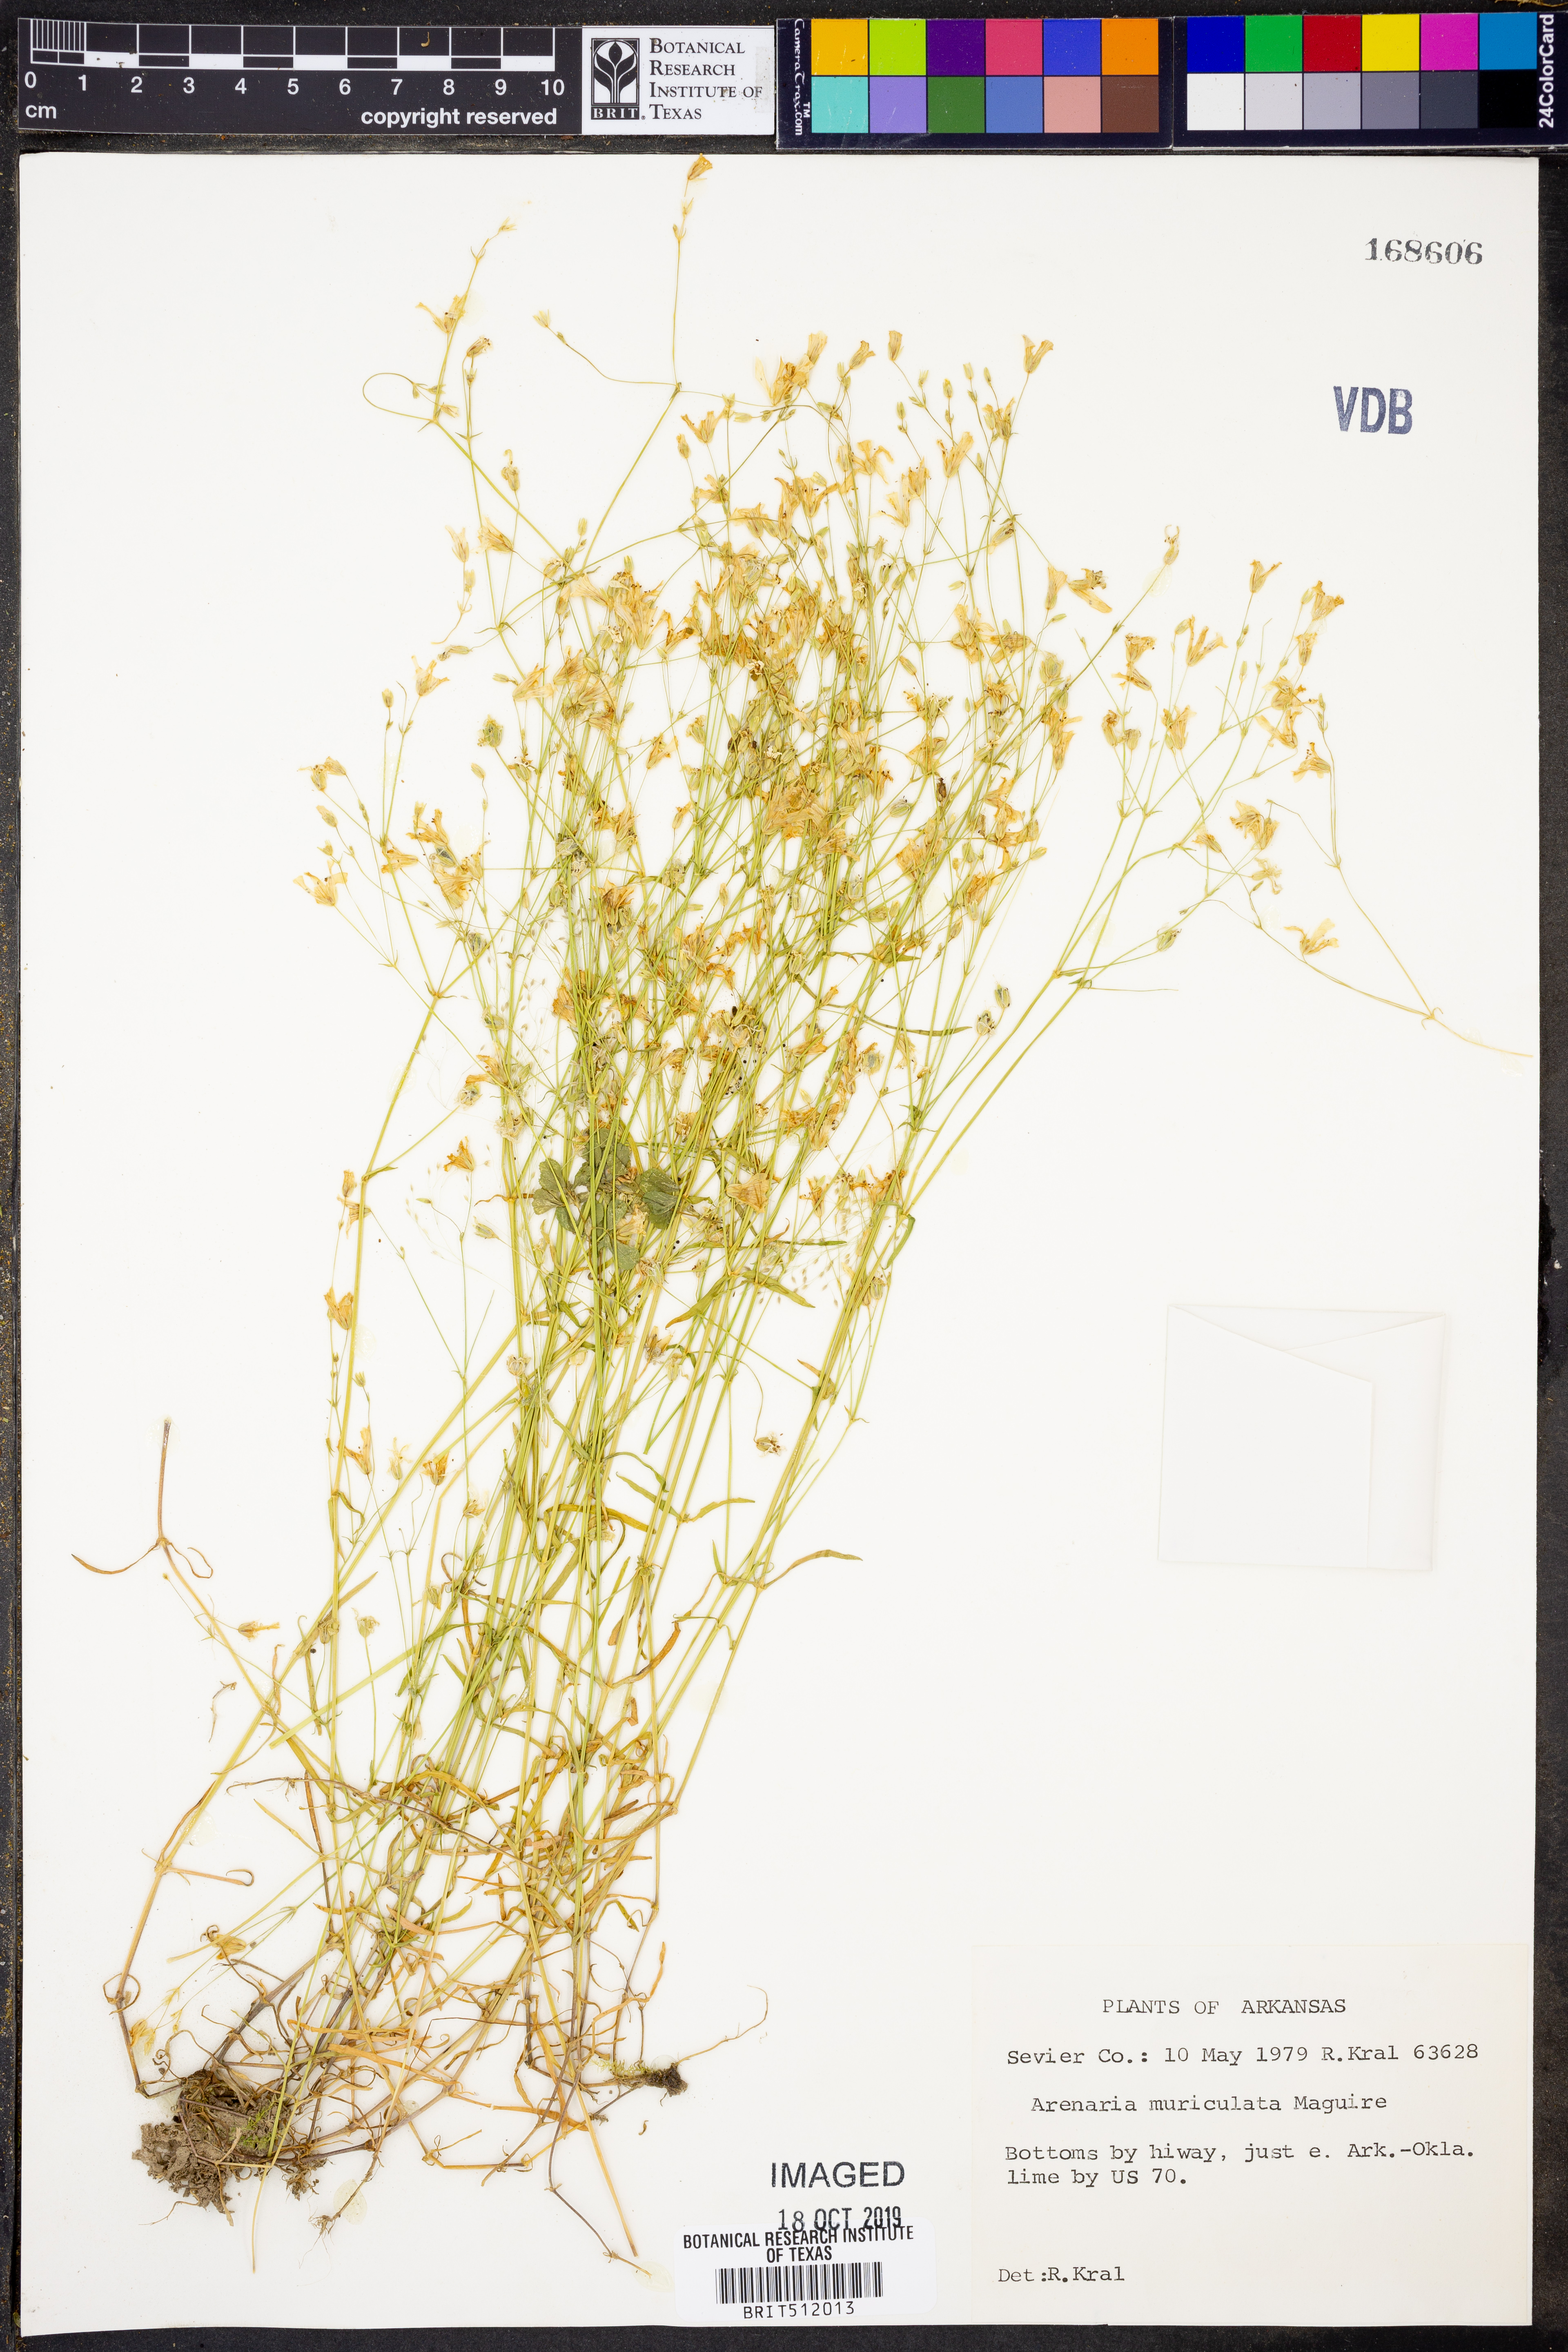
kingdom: Plantae
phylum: Tracheophyta
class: Magnoliopsida
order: Caryophyllales
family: Caryophyllaceae
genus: Mononeuria
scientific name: Mononeuria muscorum
